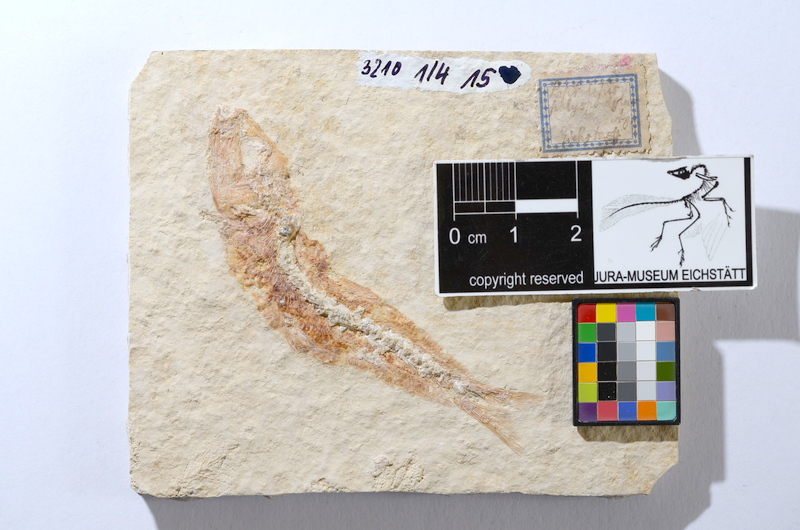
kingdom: Animalia
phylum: Chordata
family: Ascalaboidae
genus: Tharsis
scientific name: Tharsis dubius
